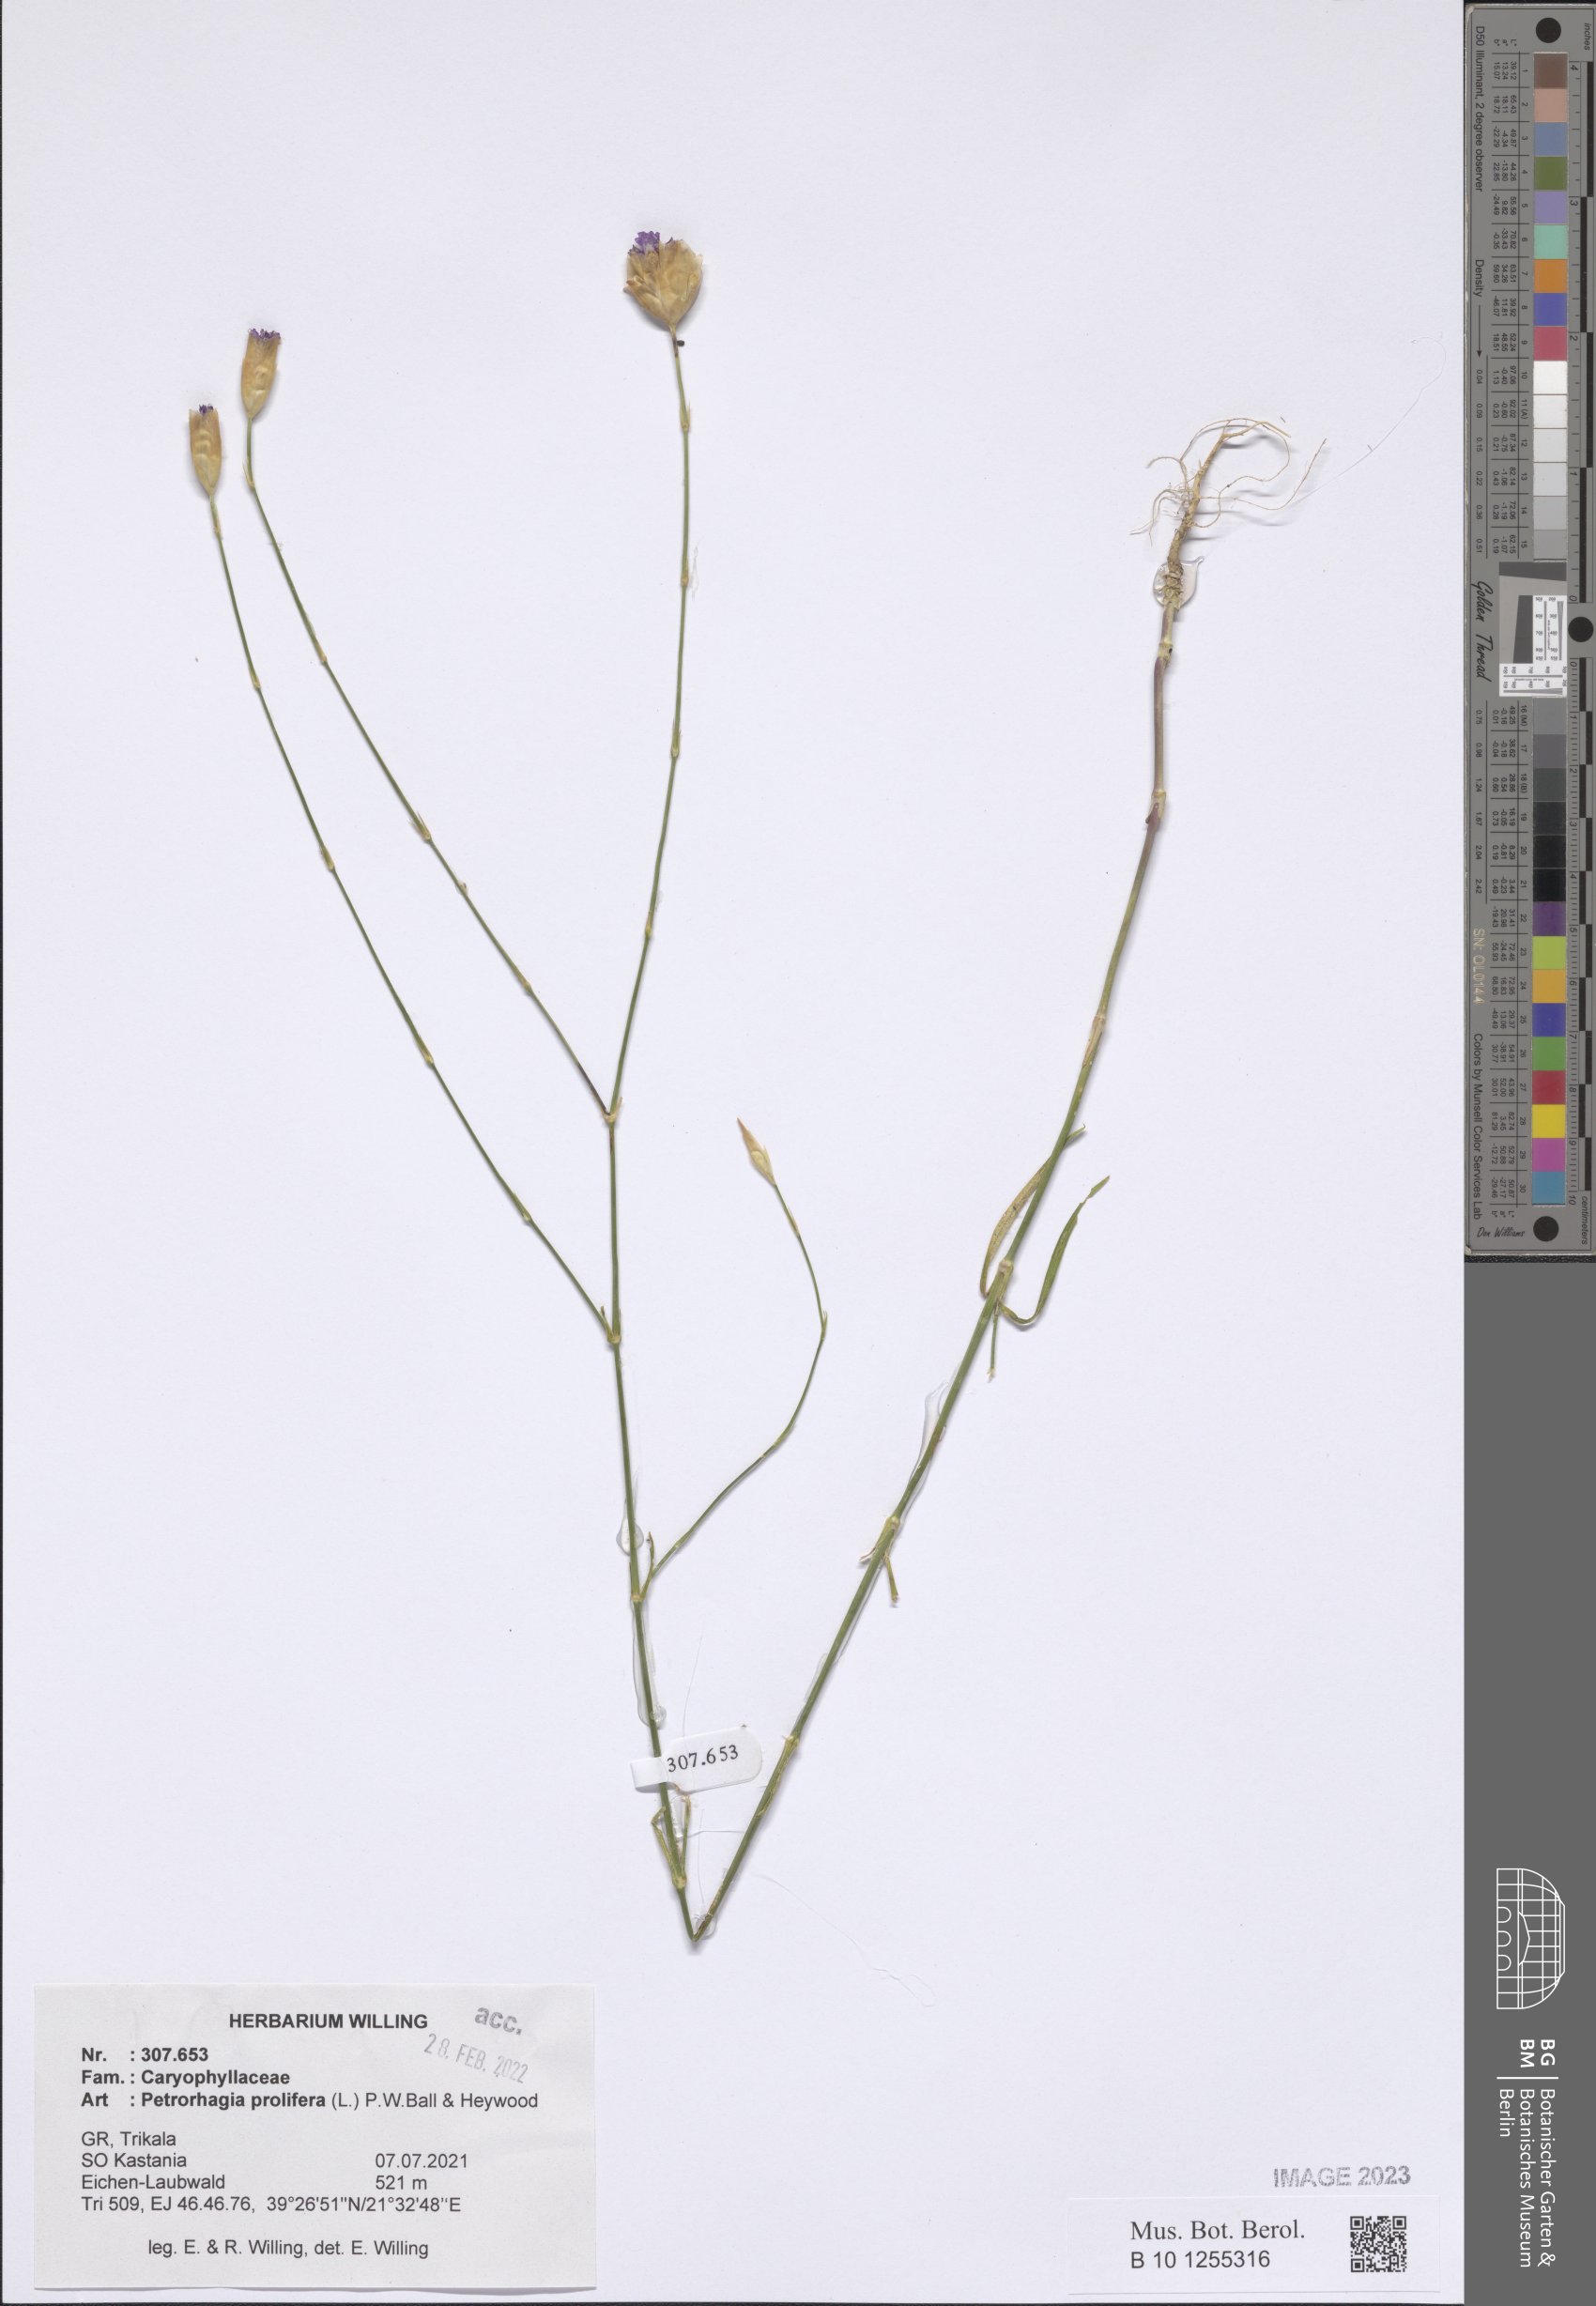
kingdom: Plantae
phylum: Tracheophyta
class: Magnoliopsida
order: Caryophyllales
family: Caryophyllaceae
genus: Petrorhagia
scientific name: Petrorhagia prolifera
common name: Proliferous pink
